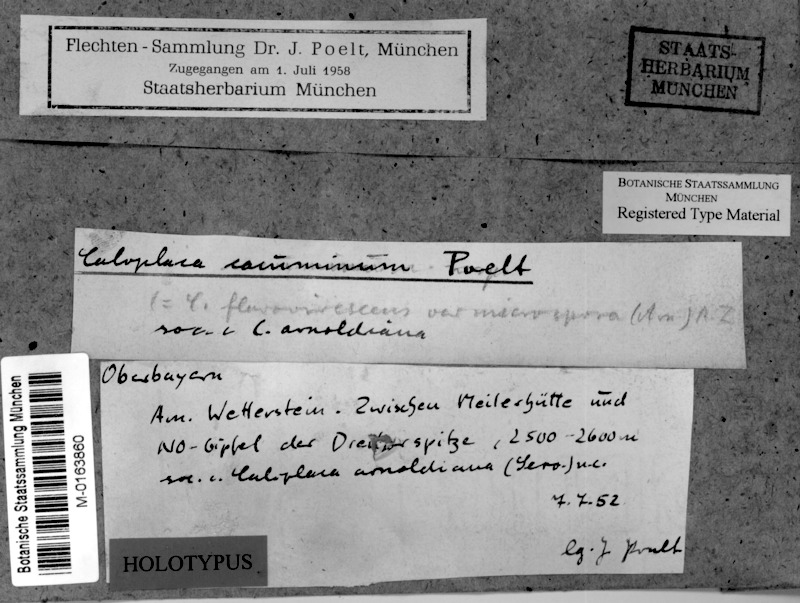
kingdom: Fungi
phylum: Ascomycota
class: Lecanoromycetes
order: Teloschistales
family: Teloschistaceae
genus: Caloplaca
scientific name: Caloplaca cacuminum
